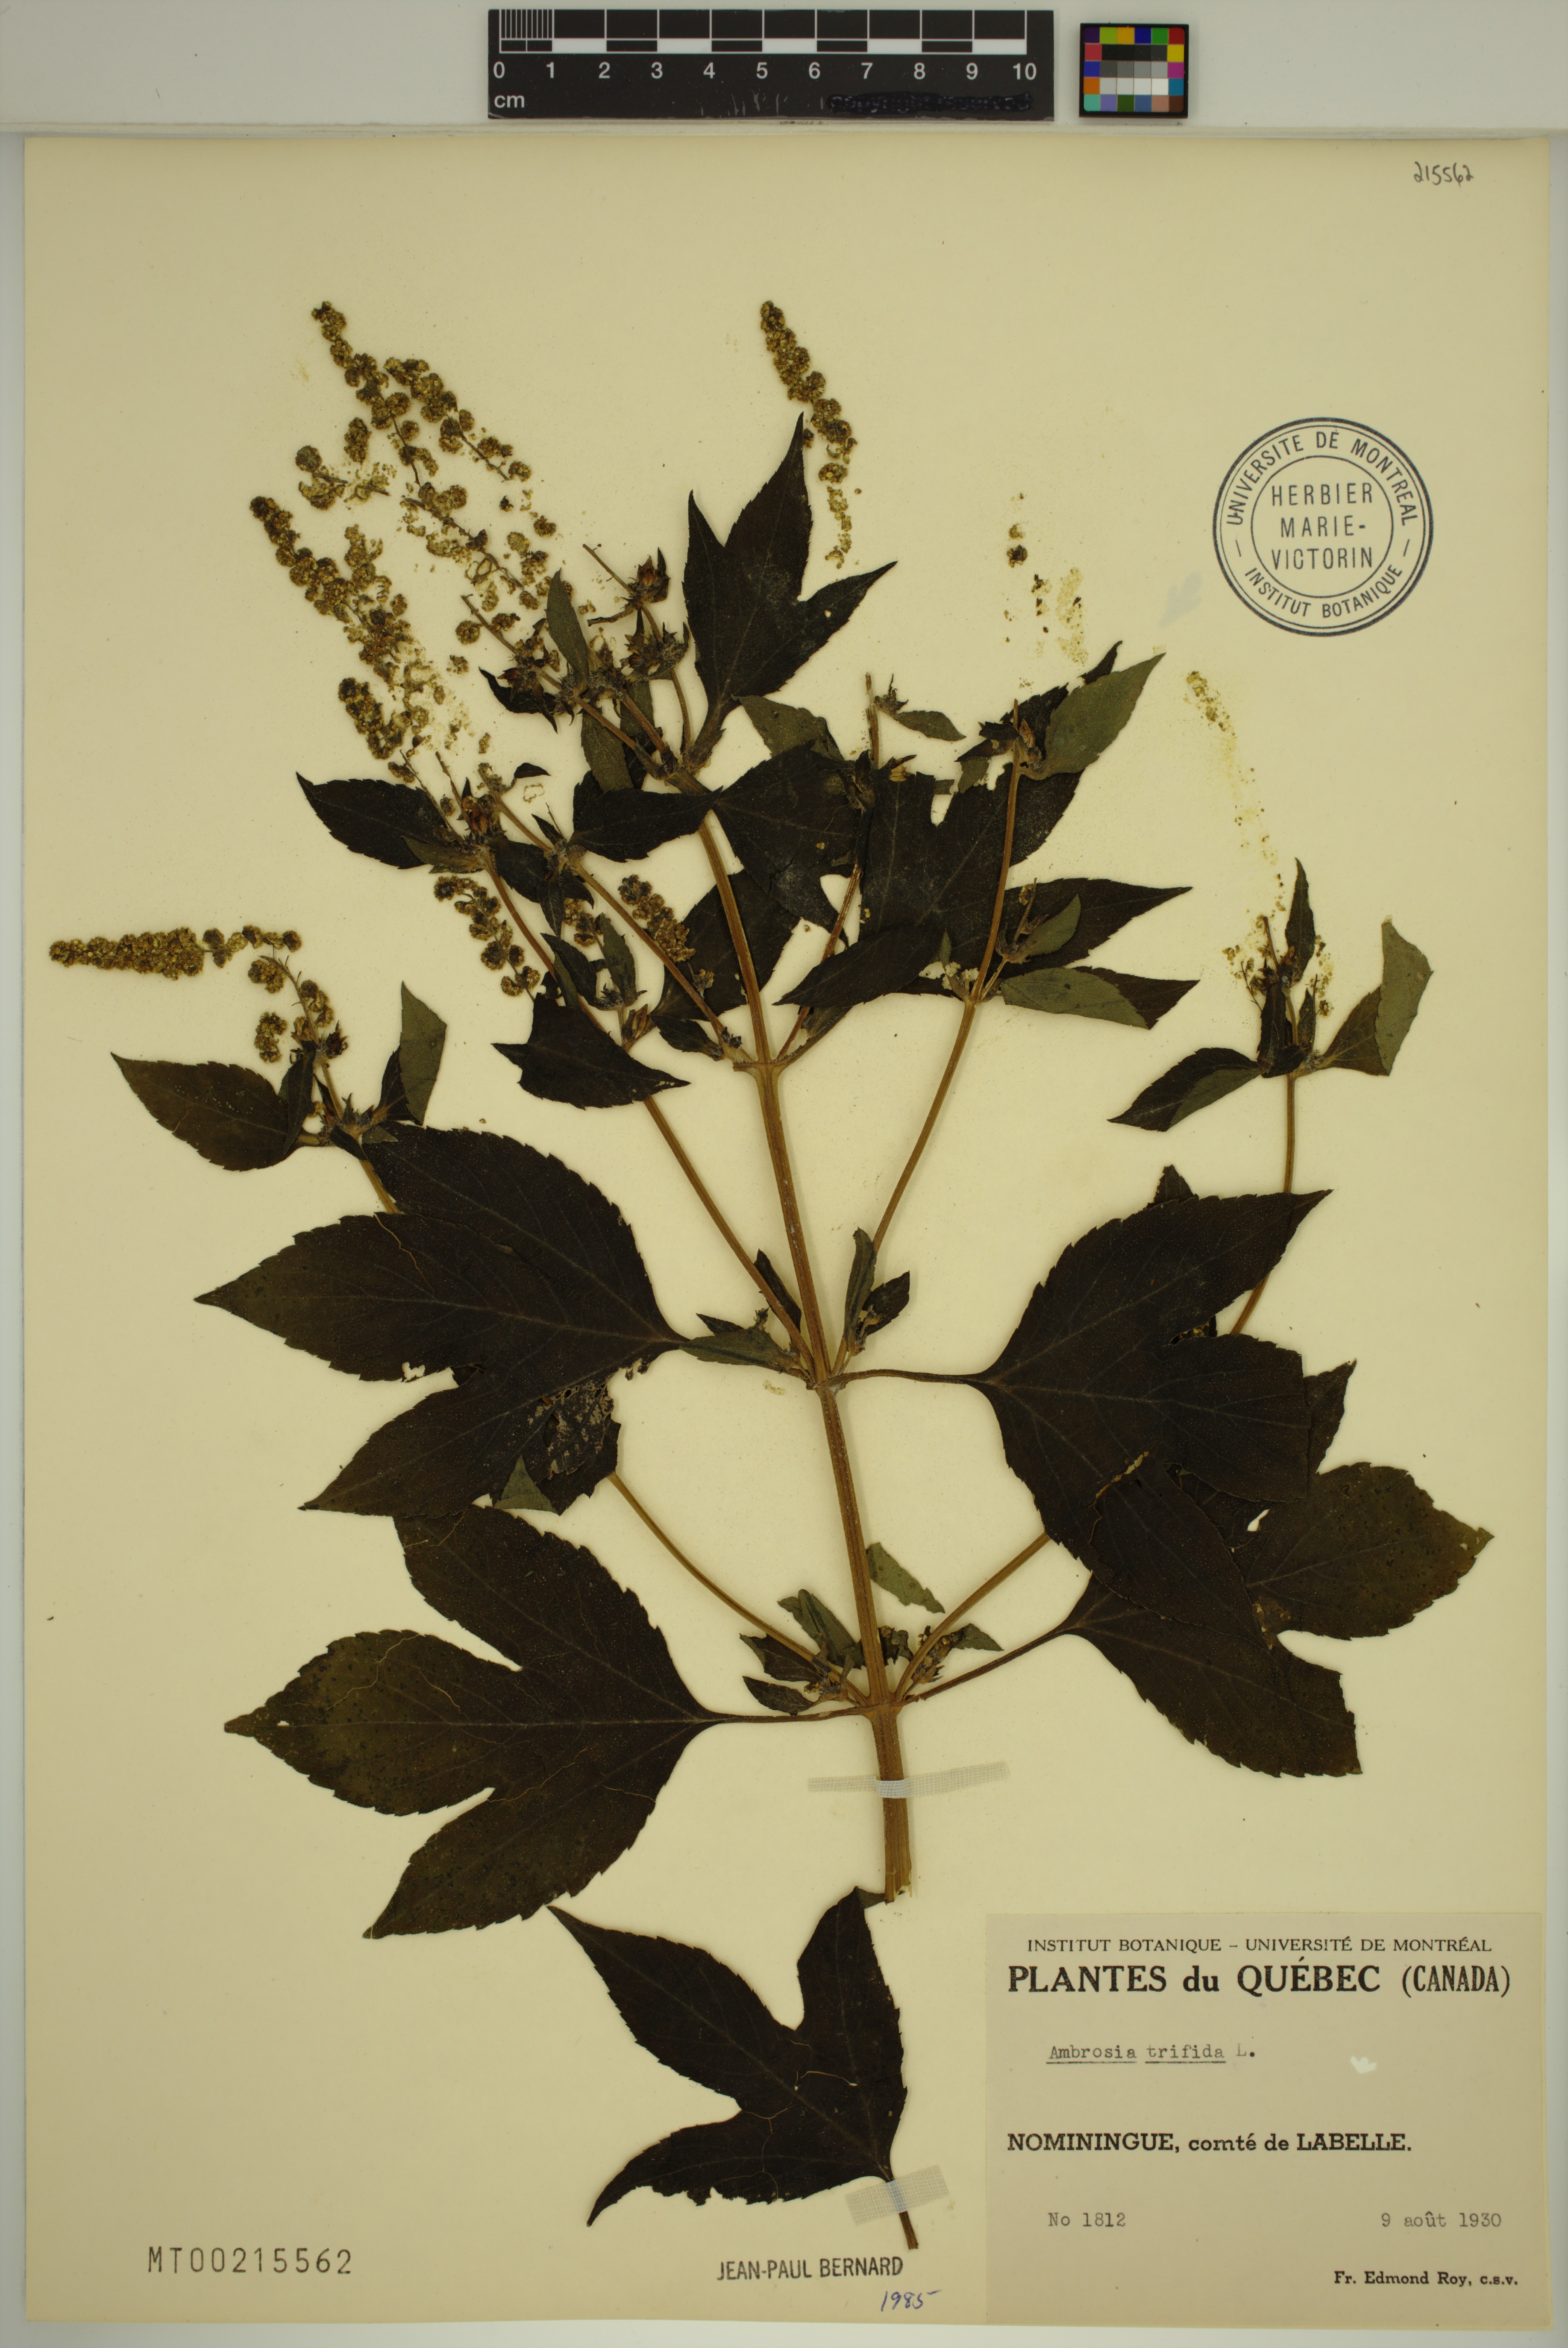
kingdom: Plantae
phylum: Tracheophyta
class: Magnoliopsida
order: Asterales
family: Asteraceae
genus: Ambrosia
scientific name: Ambrosia trifida
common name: Giant ragweed
